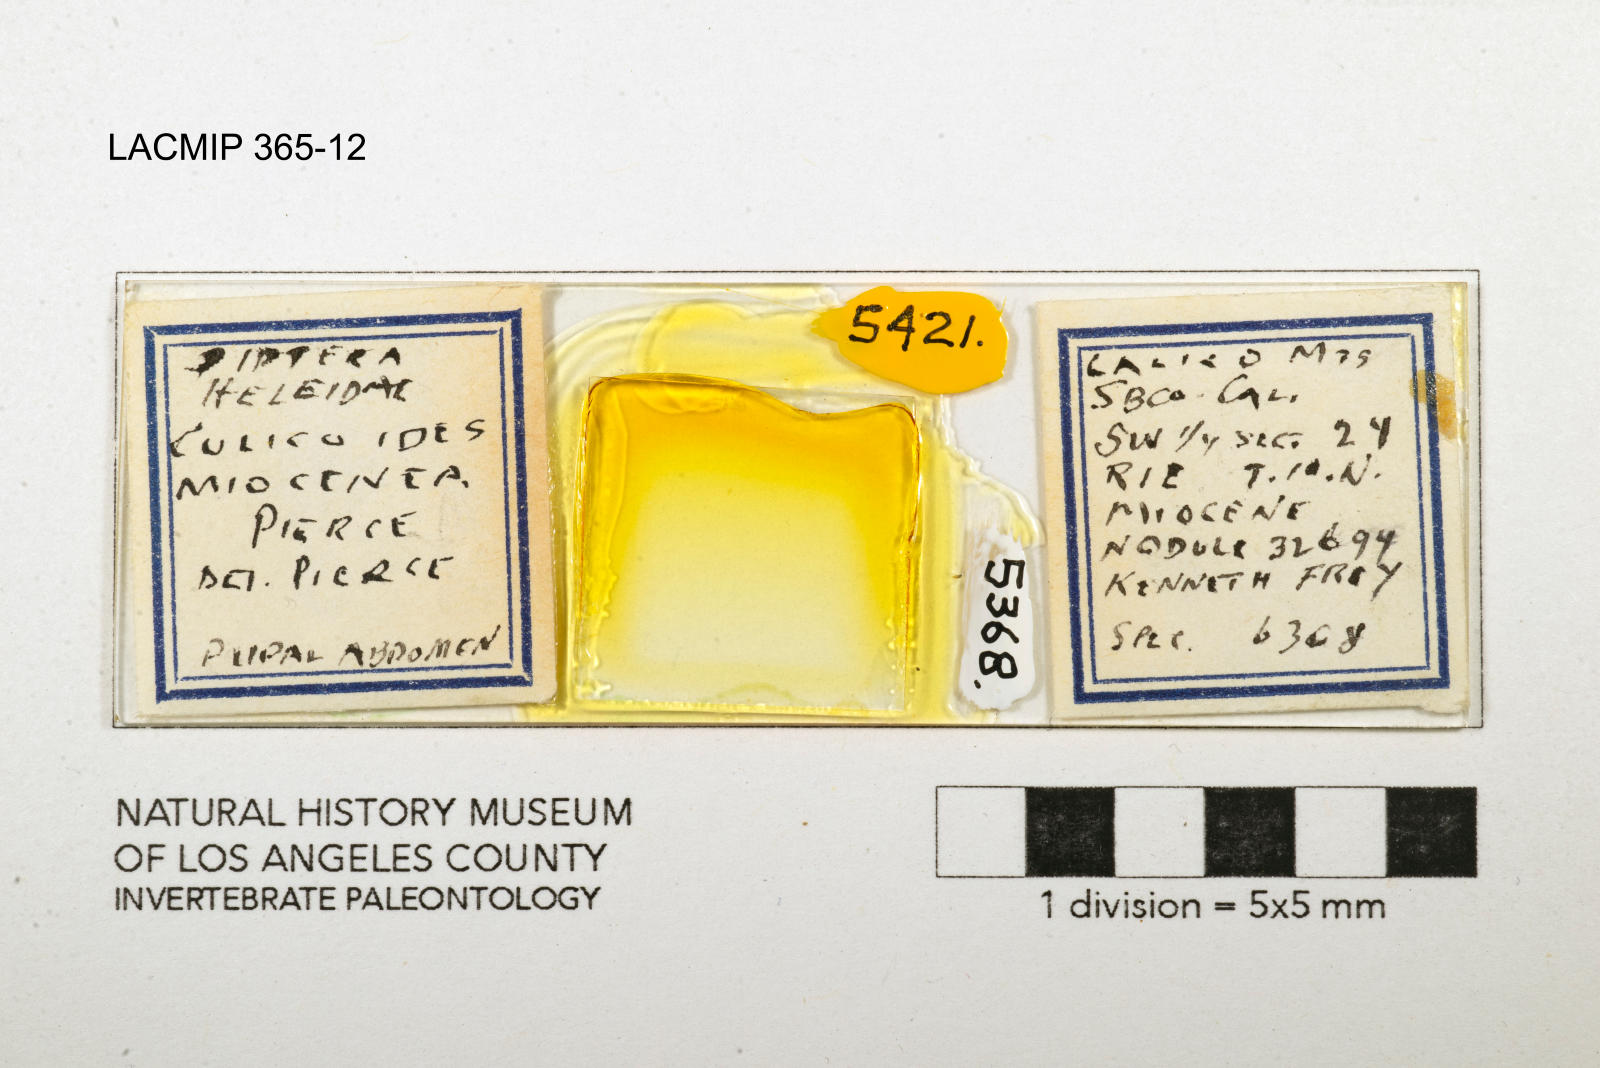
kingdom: Animalia
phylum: Arthropoda
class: Insecta
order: Diptera
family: Ceratopogonidae
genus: Culicoides
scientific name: Culicoides miocenicus
